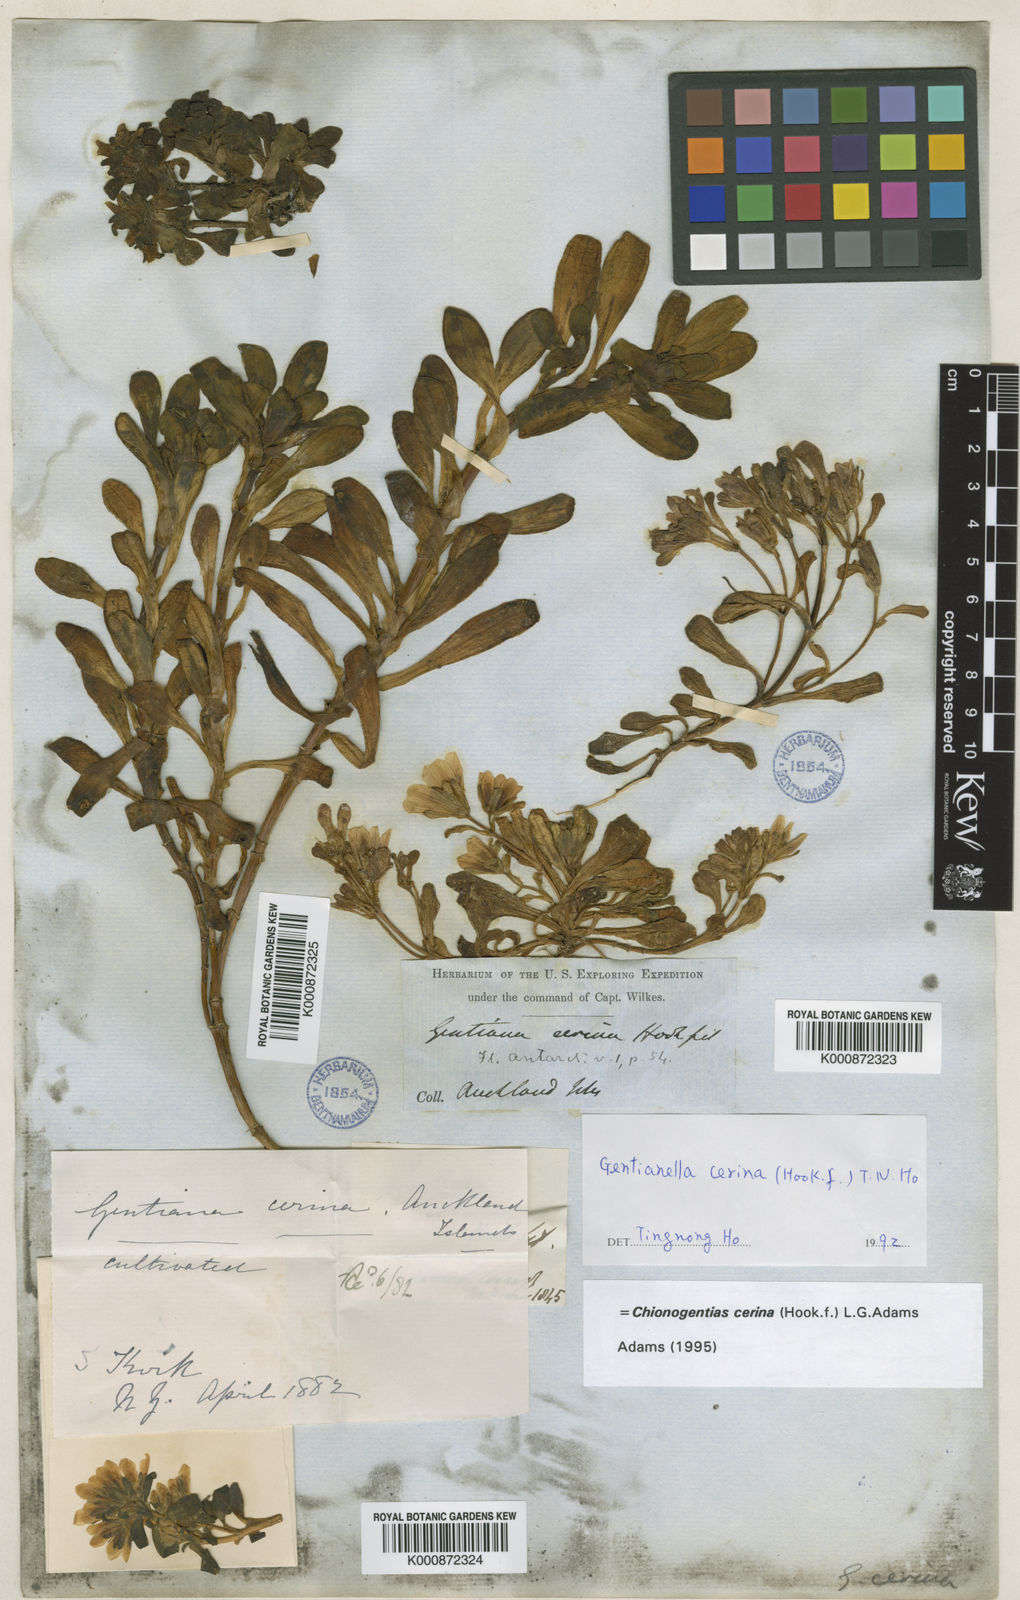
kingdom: Plantae
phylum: Tracheophyta
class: Magnoliopsida
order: Gentianales
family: Gentianaceae
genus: Gentianella
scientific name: Gentianella cerina
